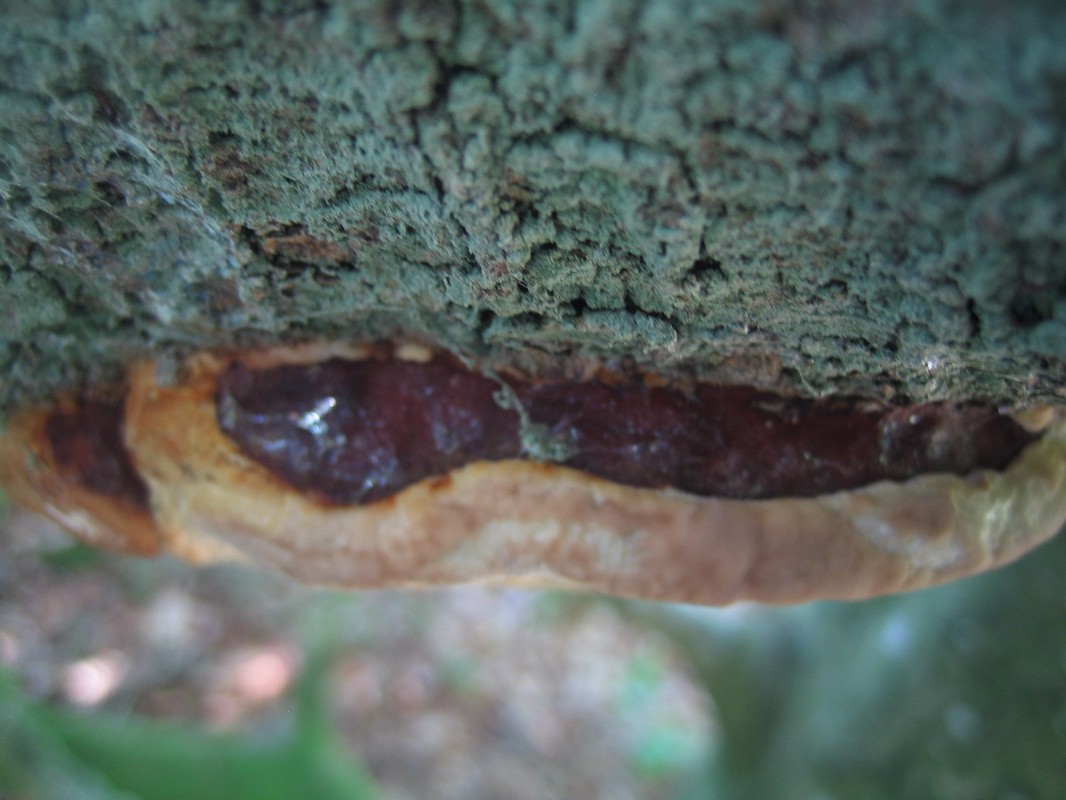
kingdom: Fungi
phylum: Basidiomycota
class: Agaricomycetes
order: Polyporales
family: Fomitopsidaceae
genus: Fomitopsis
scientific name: Fomitopsis pinicola
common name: randbæltet hovporesvamp
